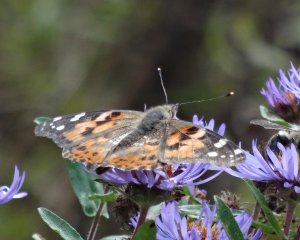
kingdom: Animalia
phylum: Arthropoda
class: Insecta
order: Lepidoptera
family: Nymphalidae
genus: Vanessa
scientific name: Vanessa virginiensis
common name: American Lady
